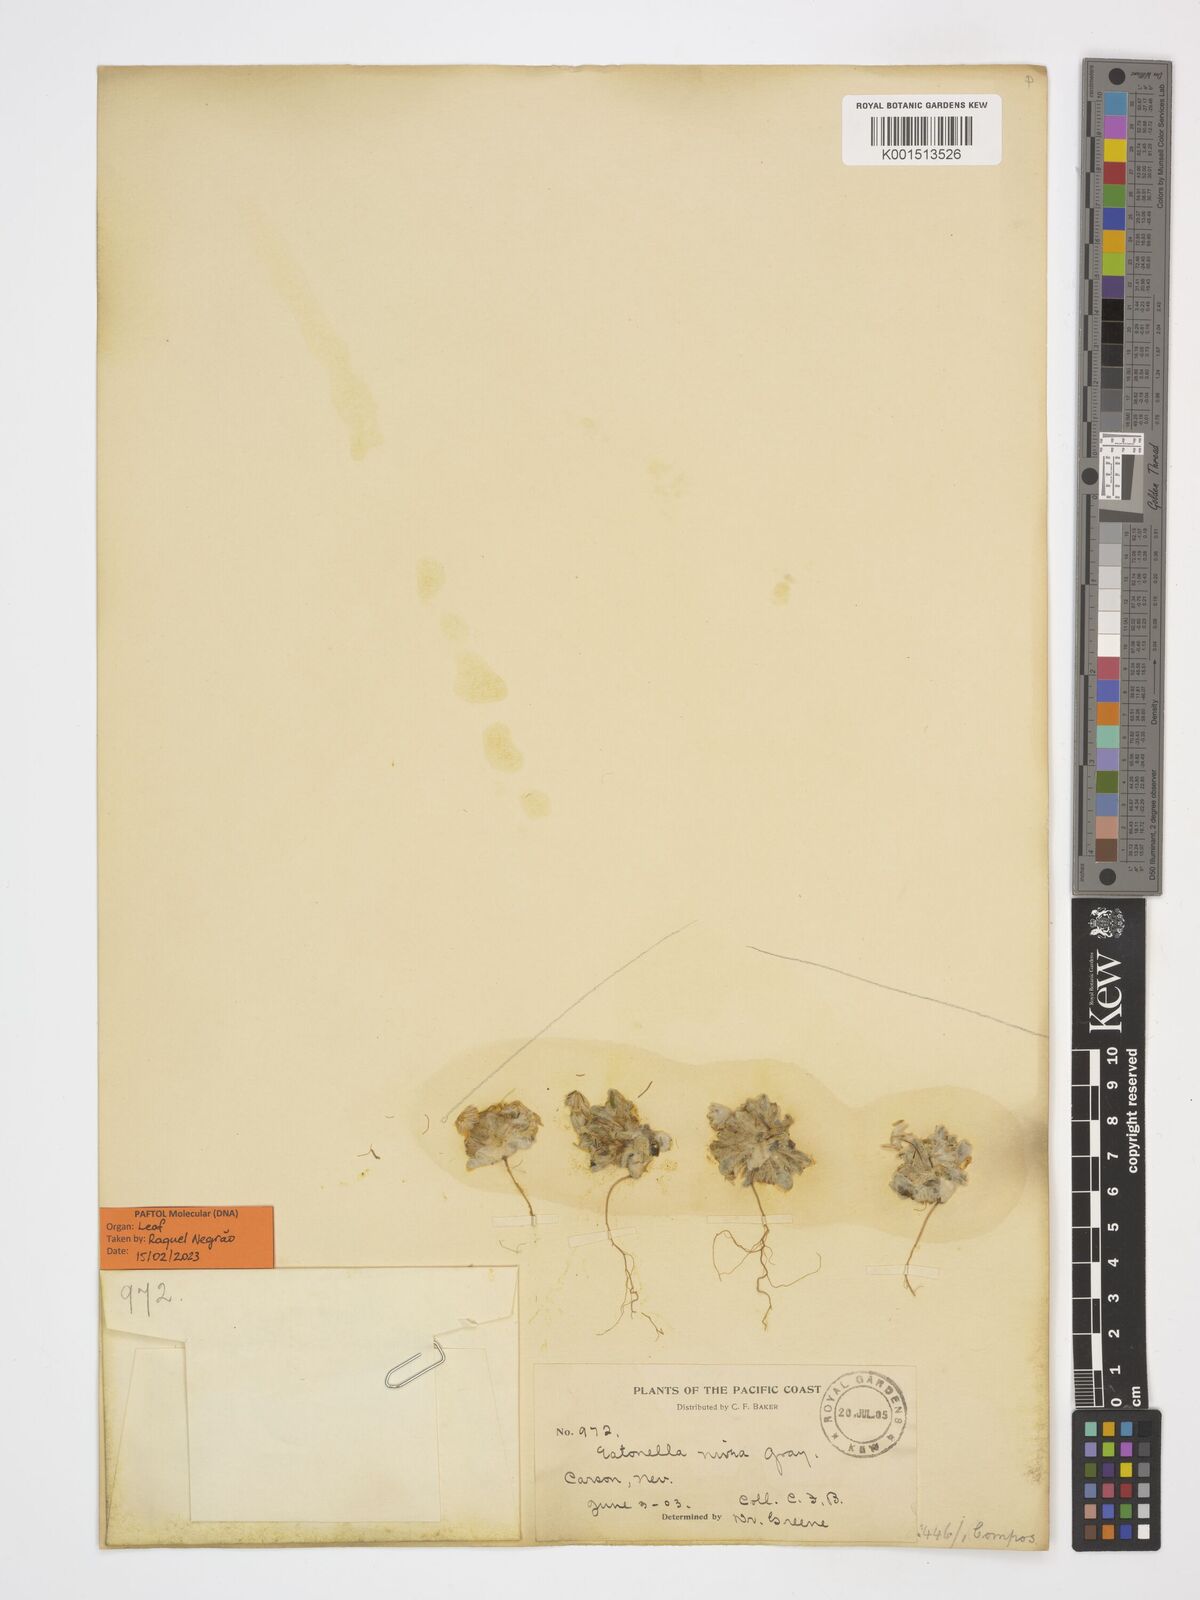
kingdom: Plantae
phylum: Tracheophyta
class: Magnoliopsida
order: Asterales
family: Asteraceae
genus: Eatonella
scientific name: Eatonella nivea
